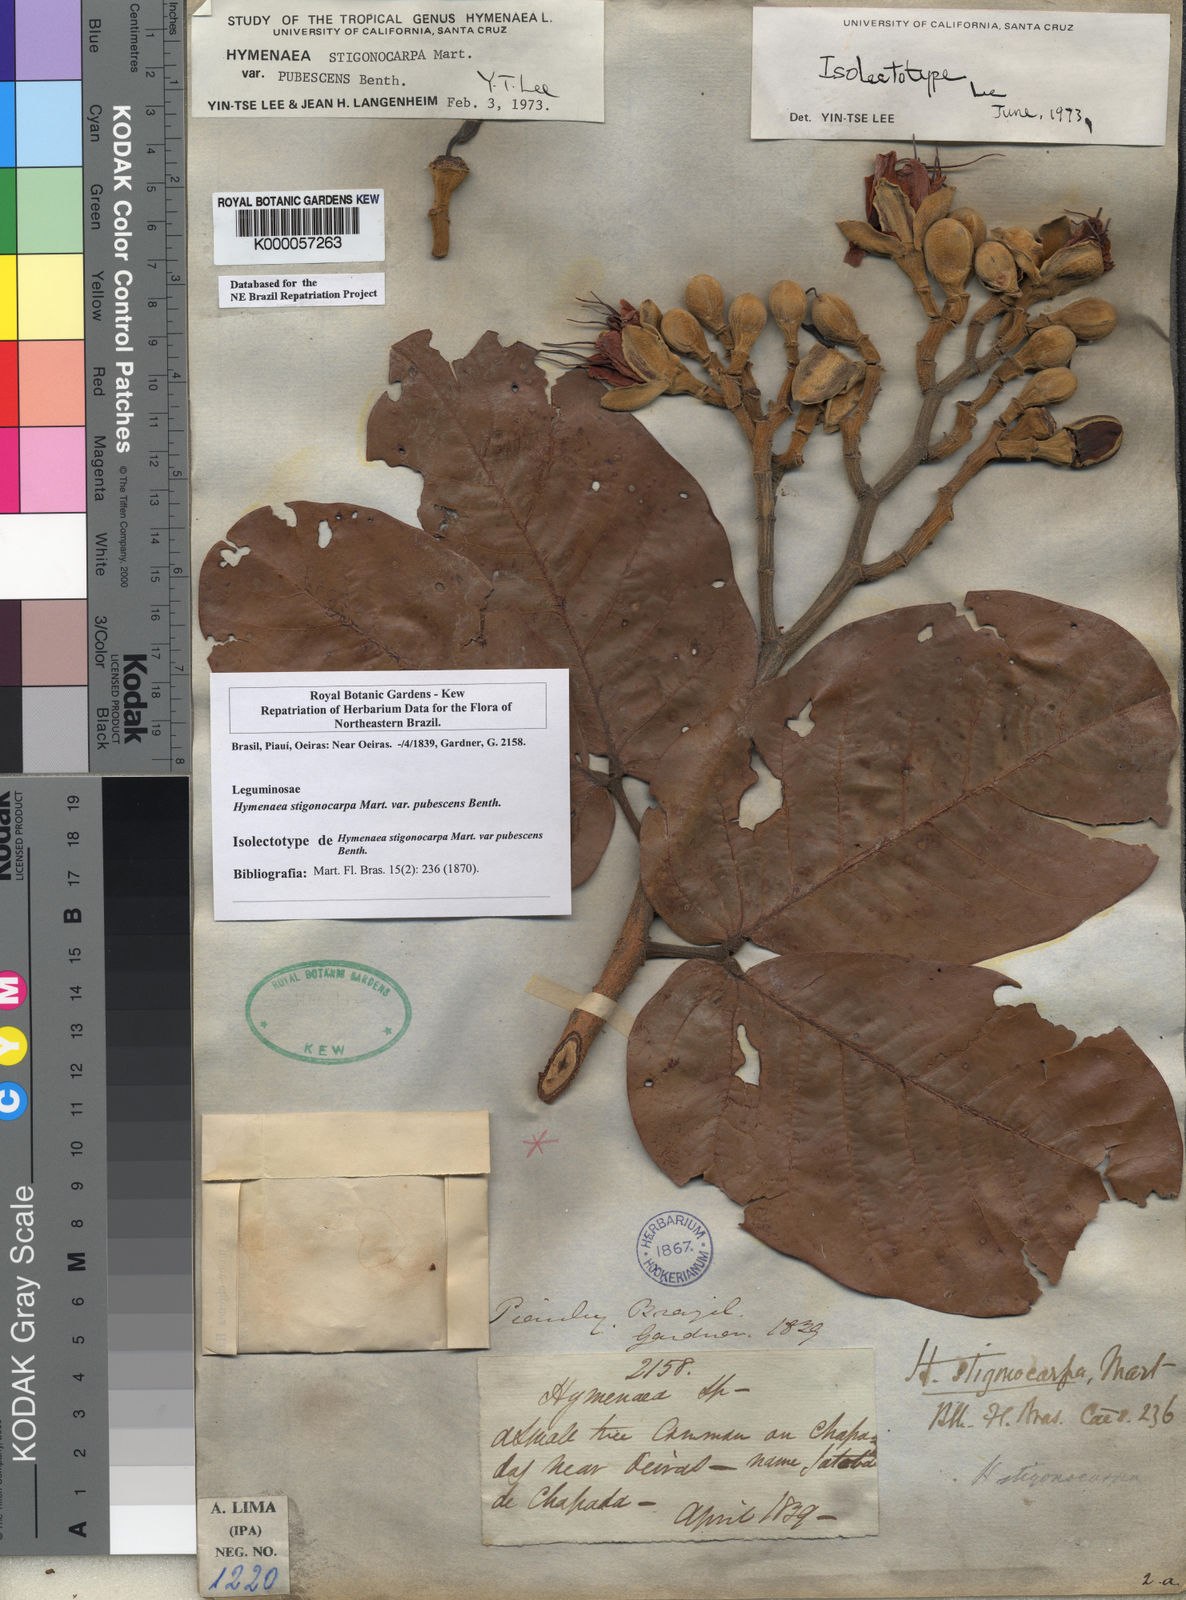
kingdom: Plantae
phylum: Tracheophyta
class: Magnoliopsida
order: Fabales
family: Fabaceae
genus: Hymenaea
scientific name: Hymenaea stigonocarpa
